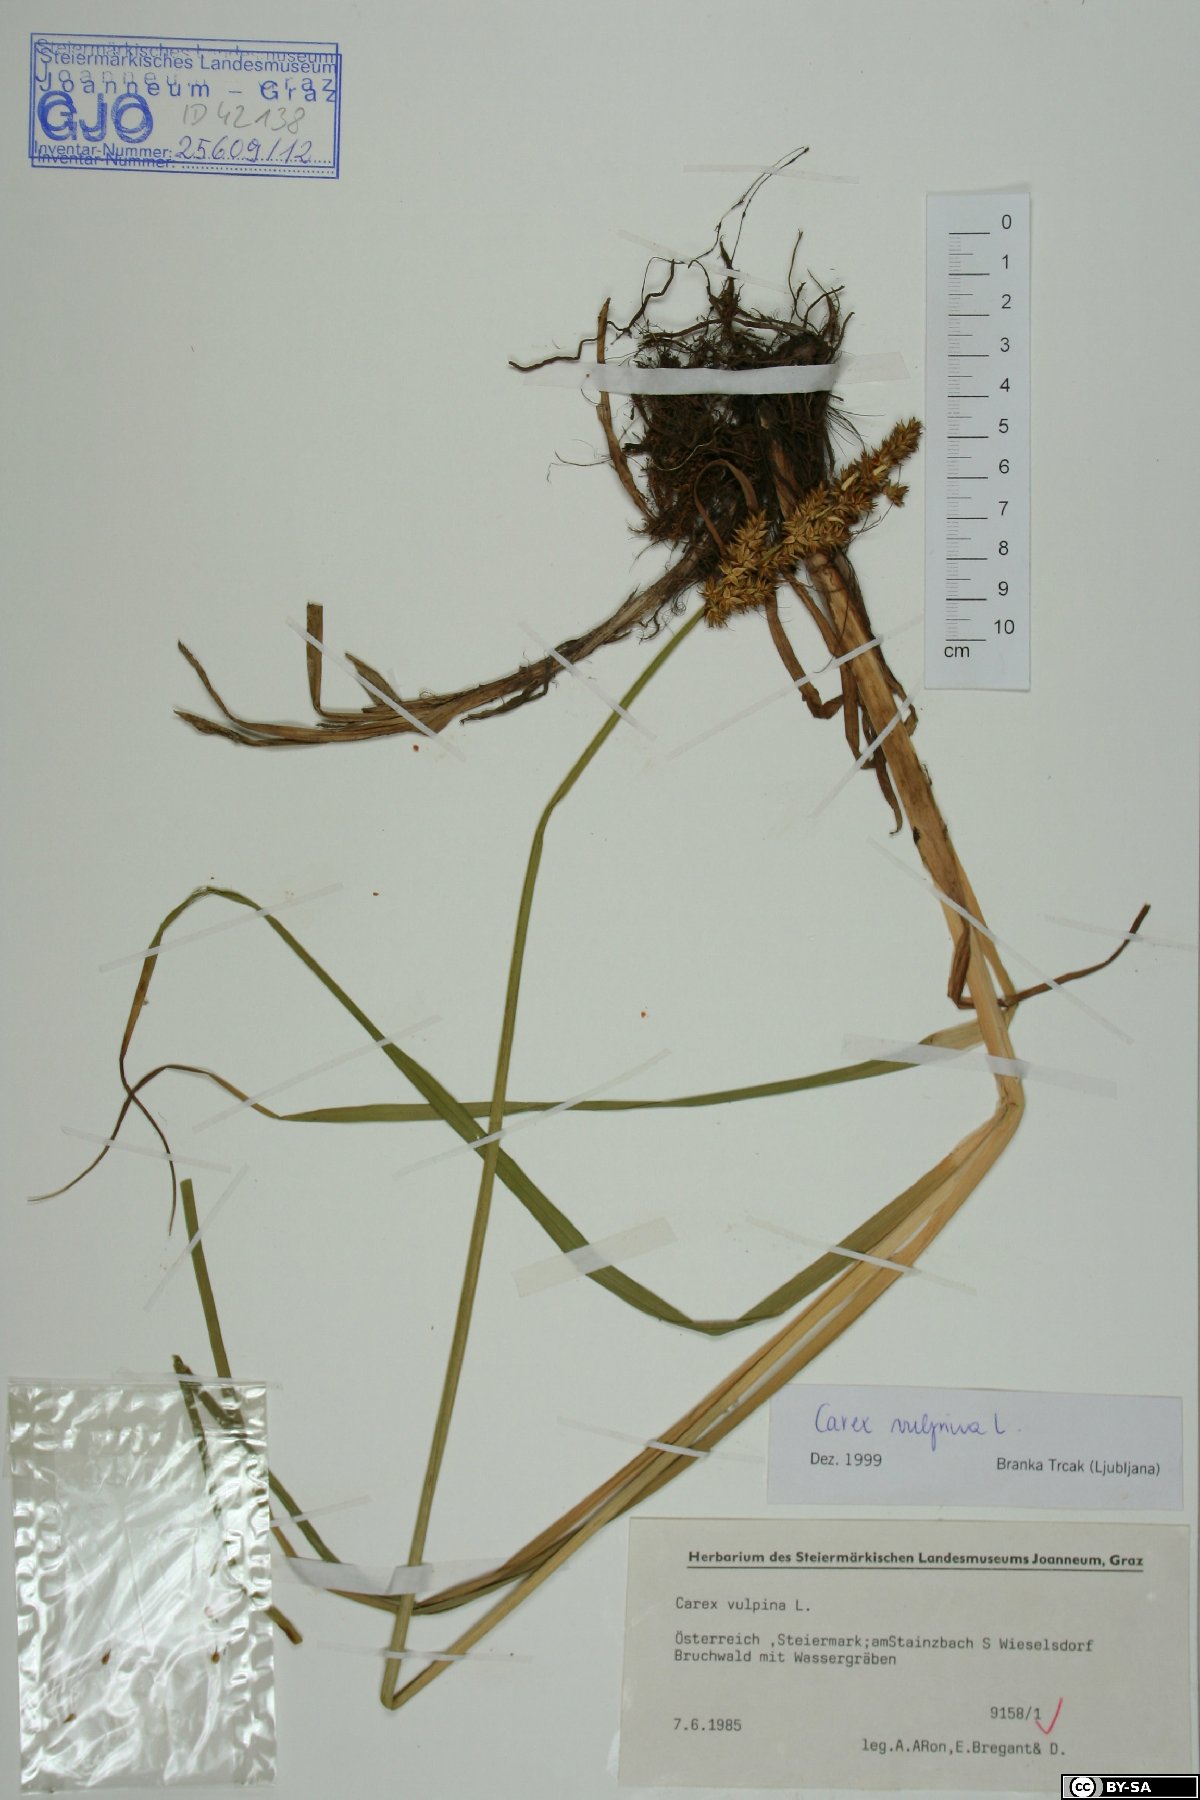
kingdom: Plantae
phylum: Tracheophyta
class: Liliopsida
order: Poales
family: Cyperaceae
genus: Carex
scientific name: Carex vulpina
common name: True fox-sedge
